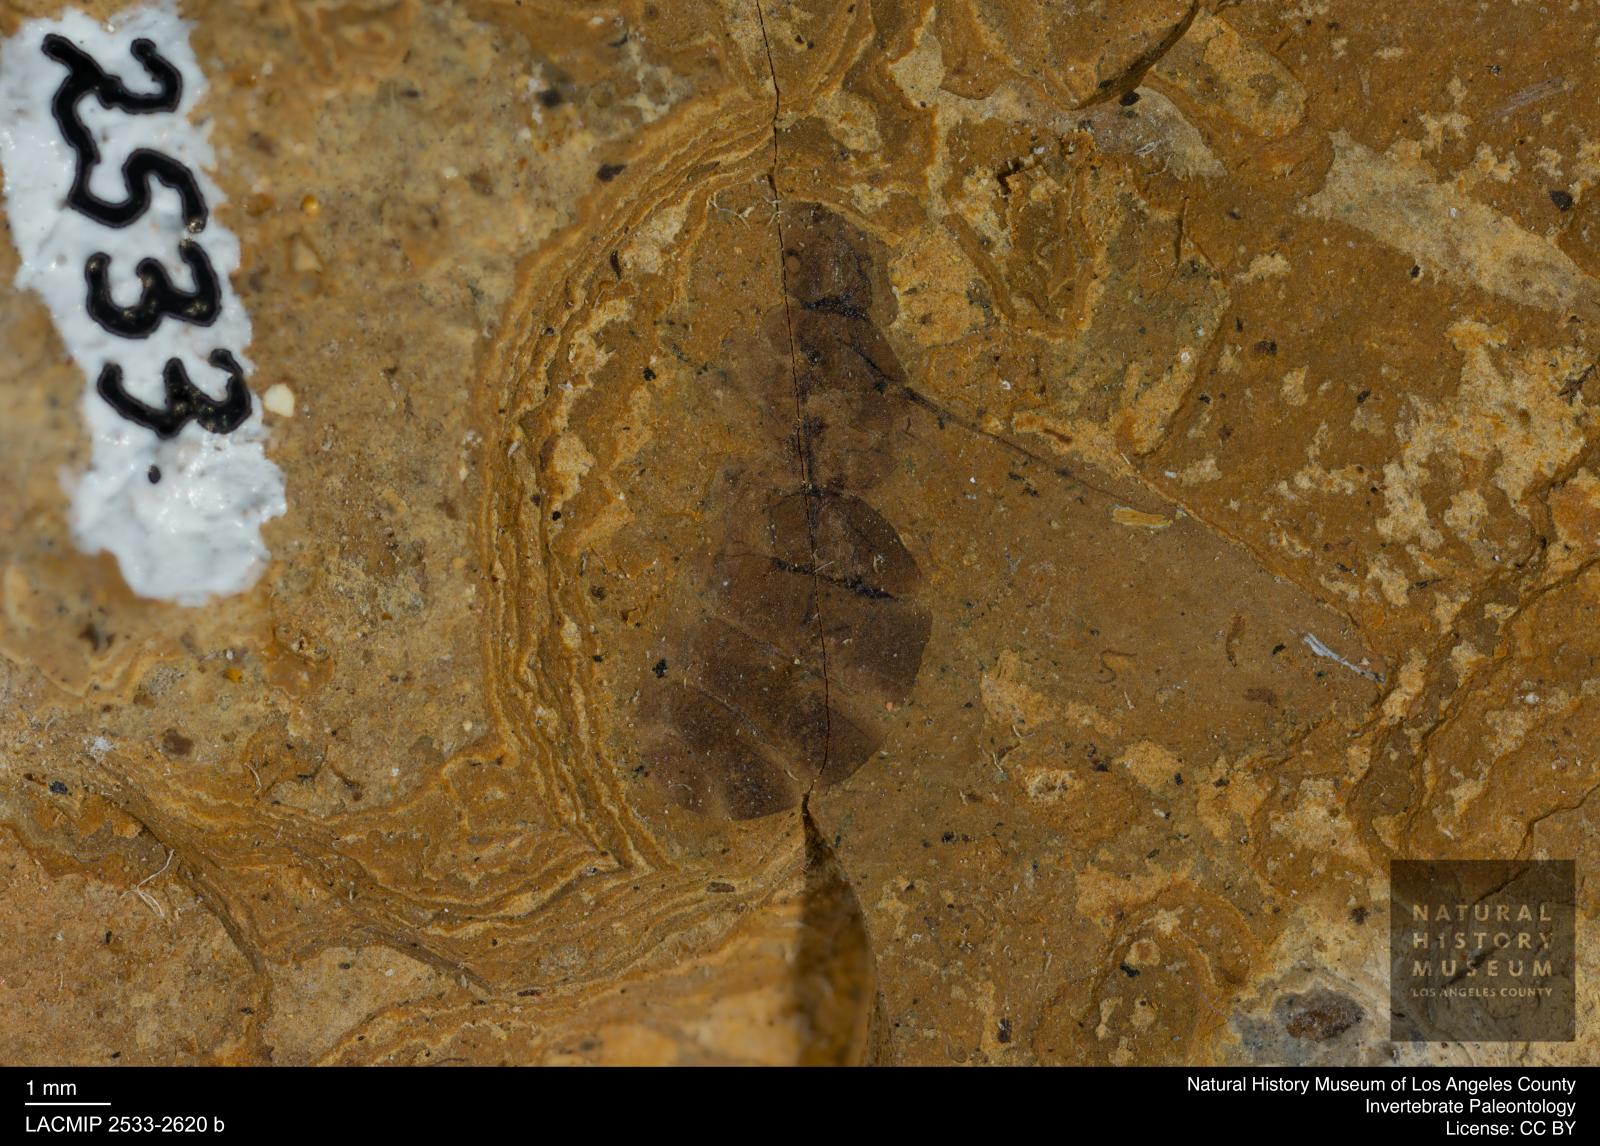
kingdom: Animalia
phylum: Arthropoda
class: Insecta
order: Hymenoptera
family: Formicidae
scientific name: Formicidae
